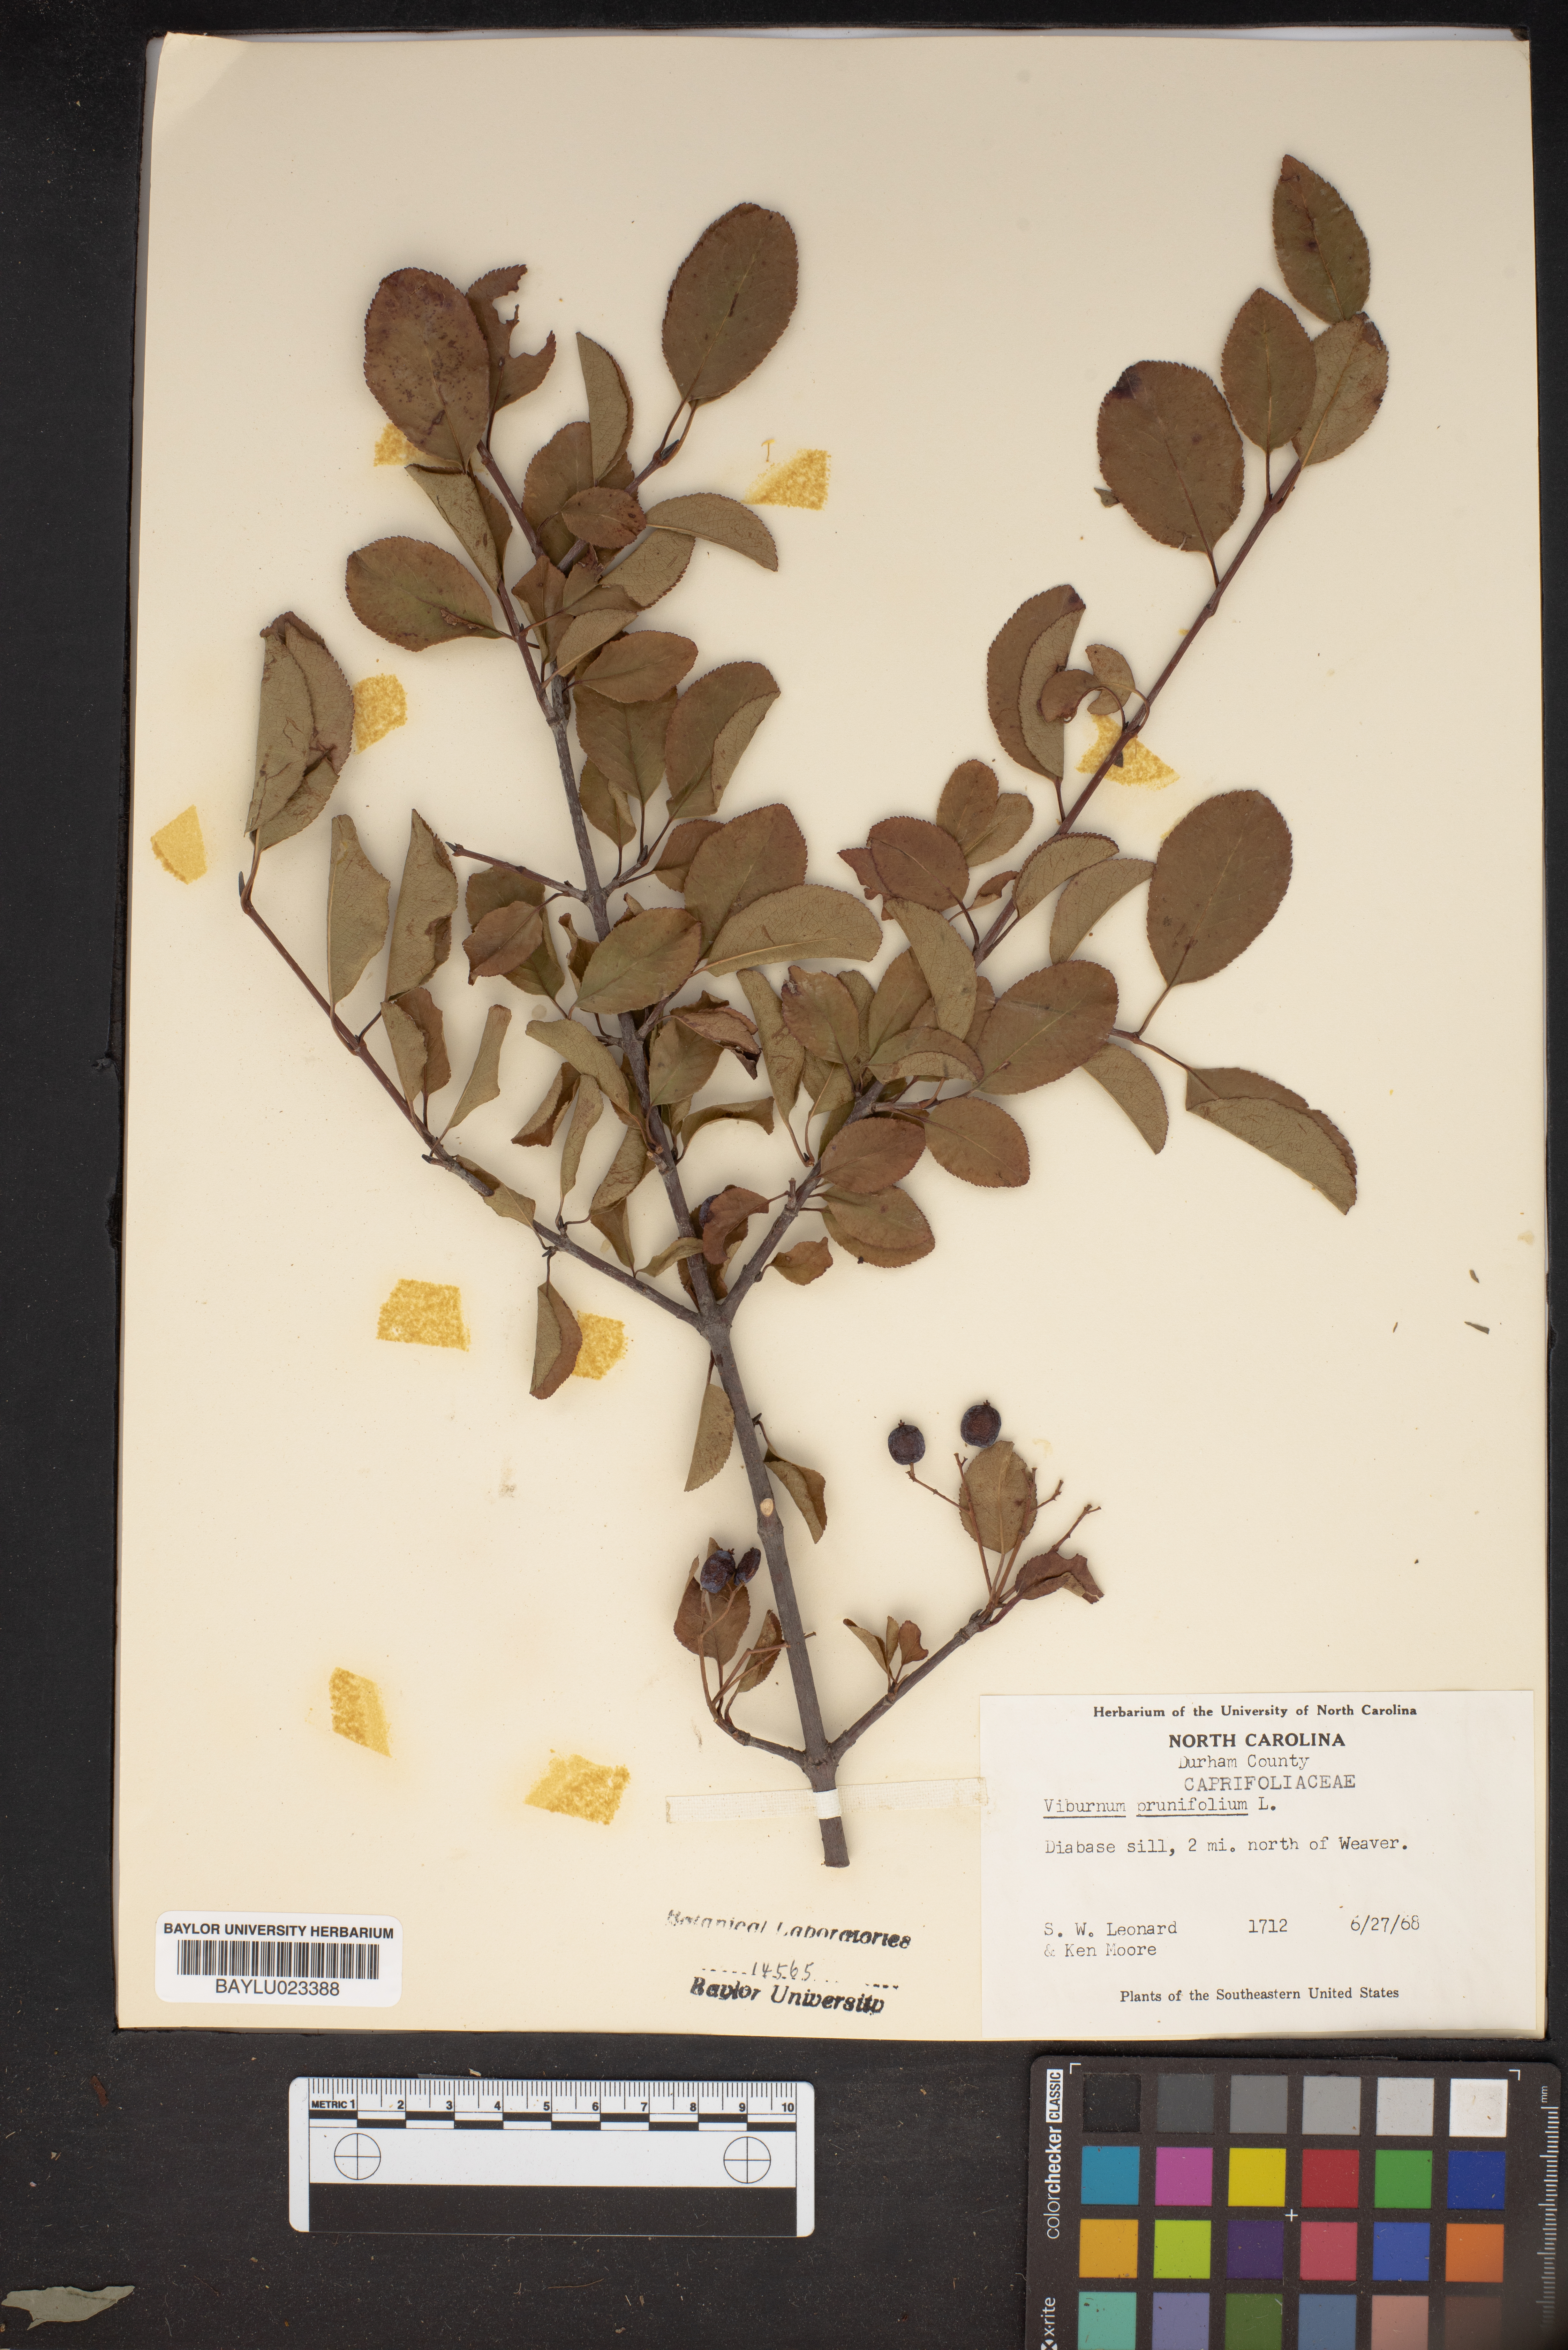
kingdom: Plantae
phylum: Tracheophyta
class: Magnoliopsida
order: Dipsacales
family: Viburnaceae
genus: Viburnum
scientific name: Viburnum prunifolium
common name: Black haw
